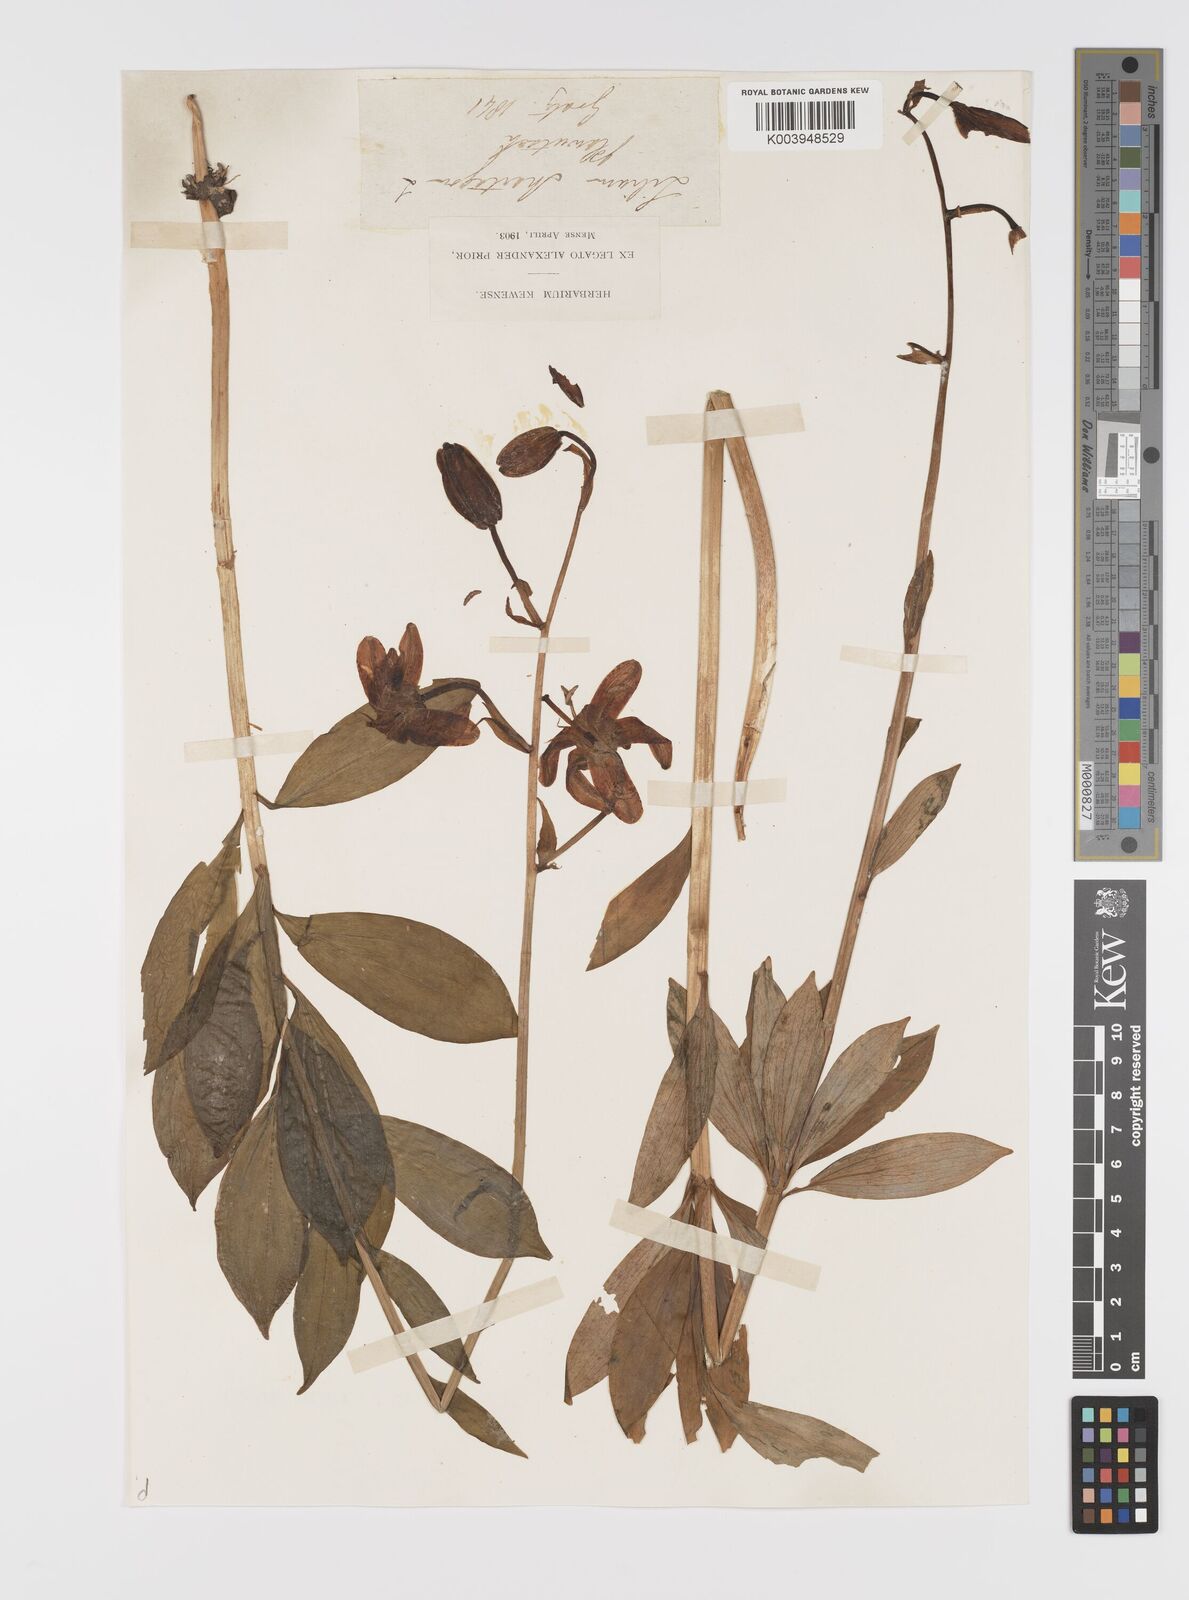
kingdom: Plantae
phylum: Tracheophyta
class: Liliopsida
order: Liliales
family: Liliaceae
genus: Lilium
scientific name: Lilium martagon
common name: Martagon lily
